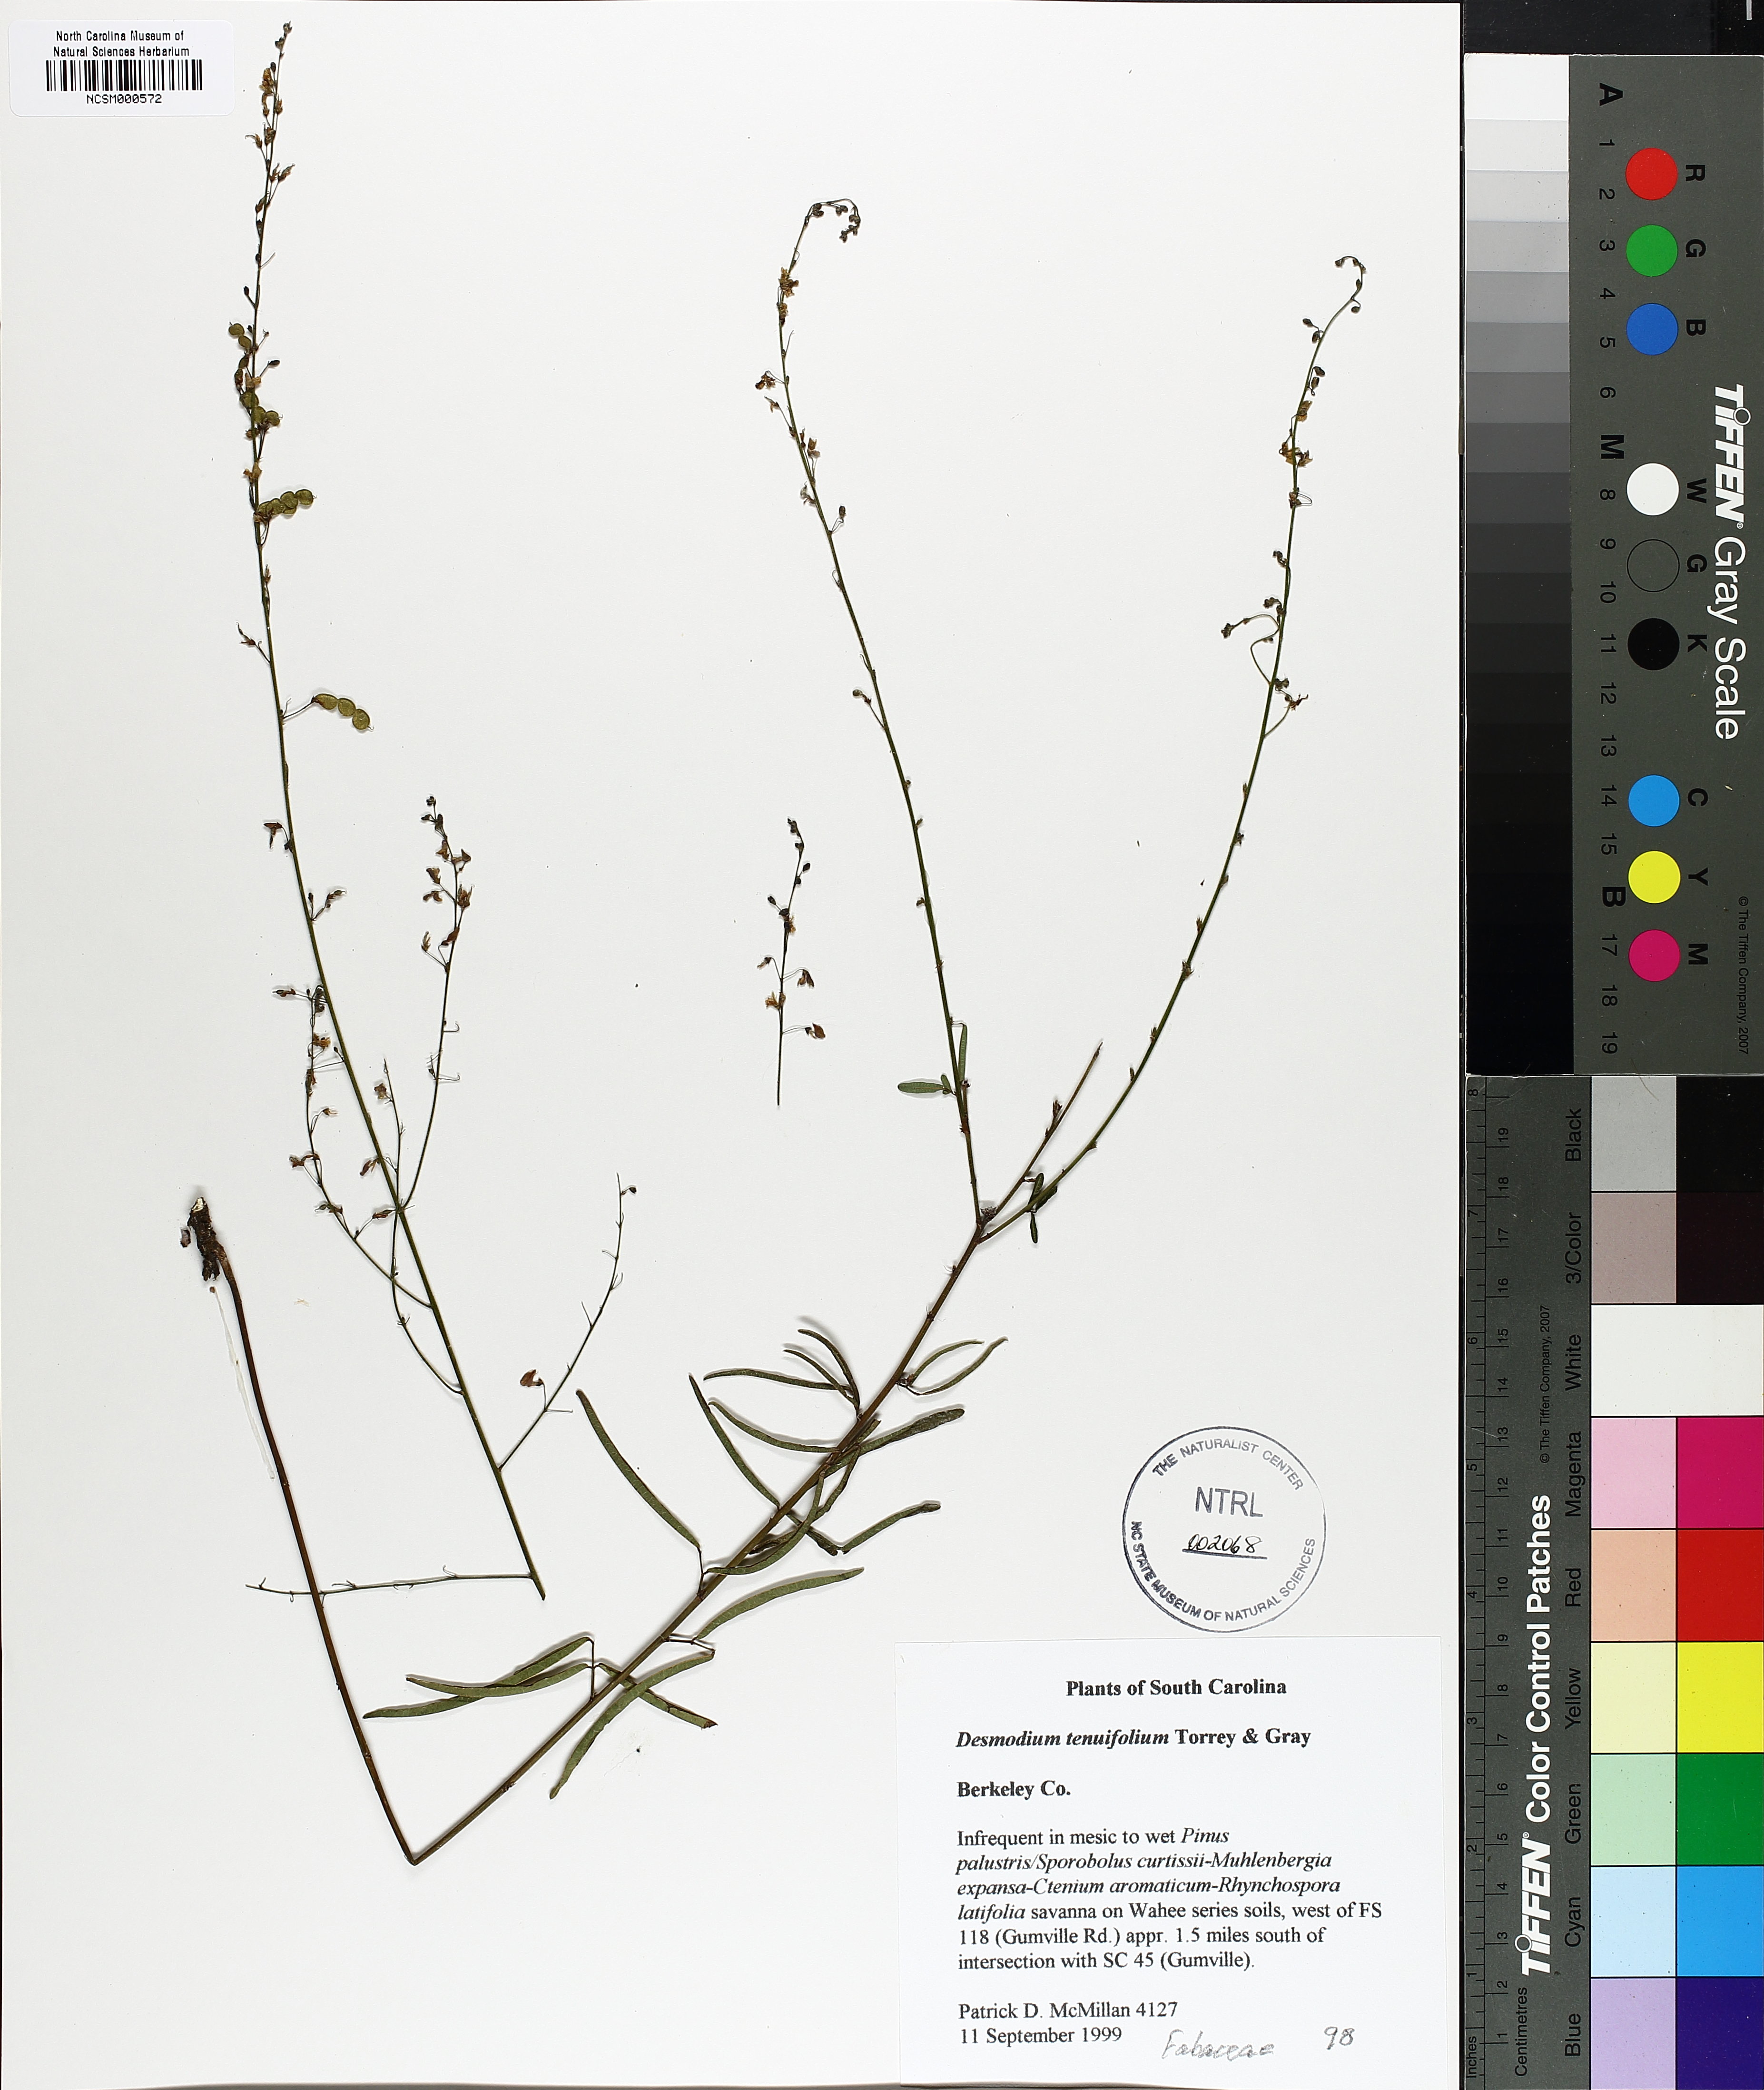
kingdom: Plantae
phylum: Tracheophyta
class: Magnoliopsida
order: Fabales
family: Fabaceae
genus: Desmodium
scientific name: Desmodium tenuifolium
